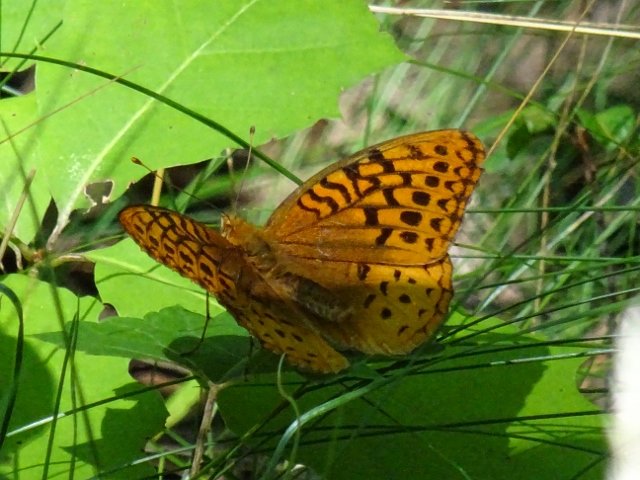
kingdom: Animalia
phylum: Arthropoda
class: Insecta
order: Lepidoptera
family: Nymphalidae
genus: Speyeria
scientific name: Speyeria cybele
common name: Great Spangled Fritillary
